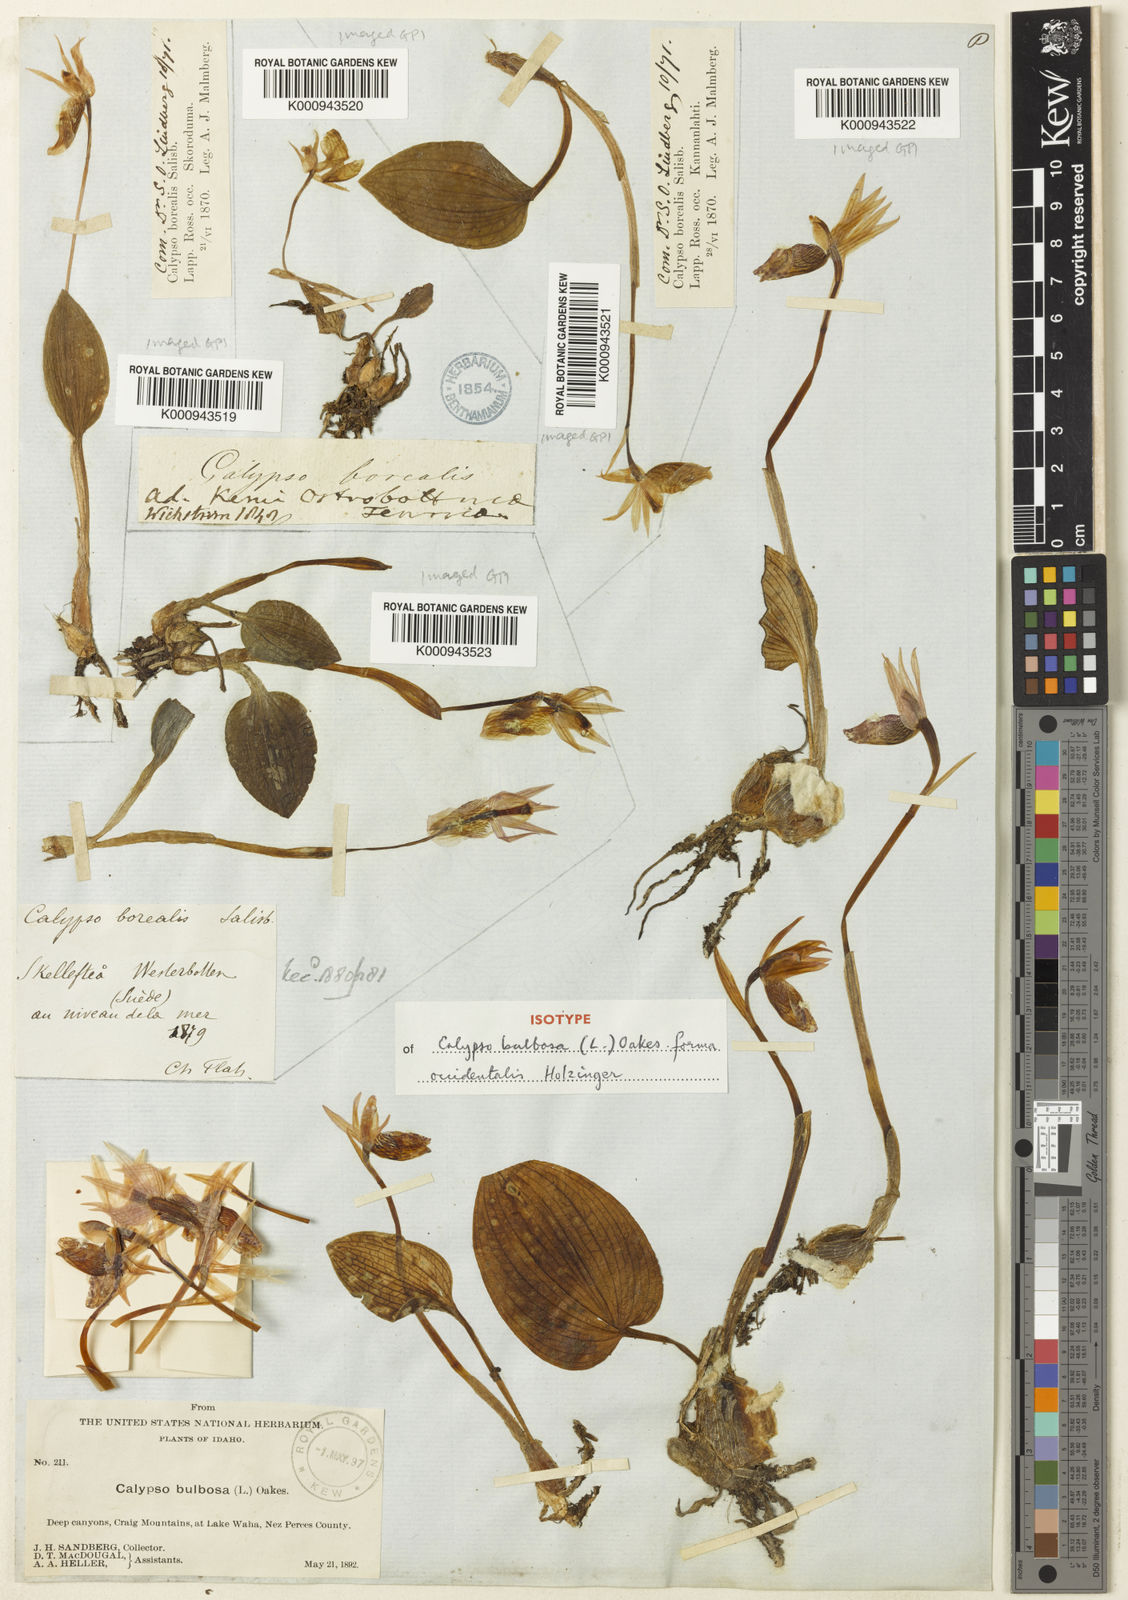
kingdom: Plantae
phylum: Tracheophyta
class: Liliopsida
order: Asparagales
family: Orchidaceae
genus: Calypso
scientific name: Calypso bulbosa
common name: Calypso
